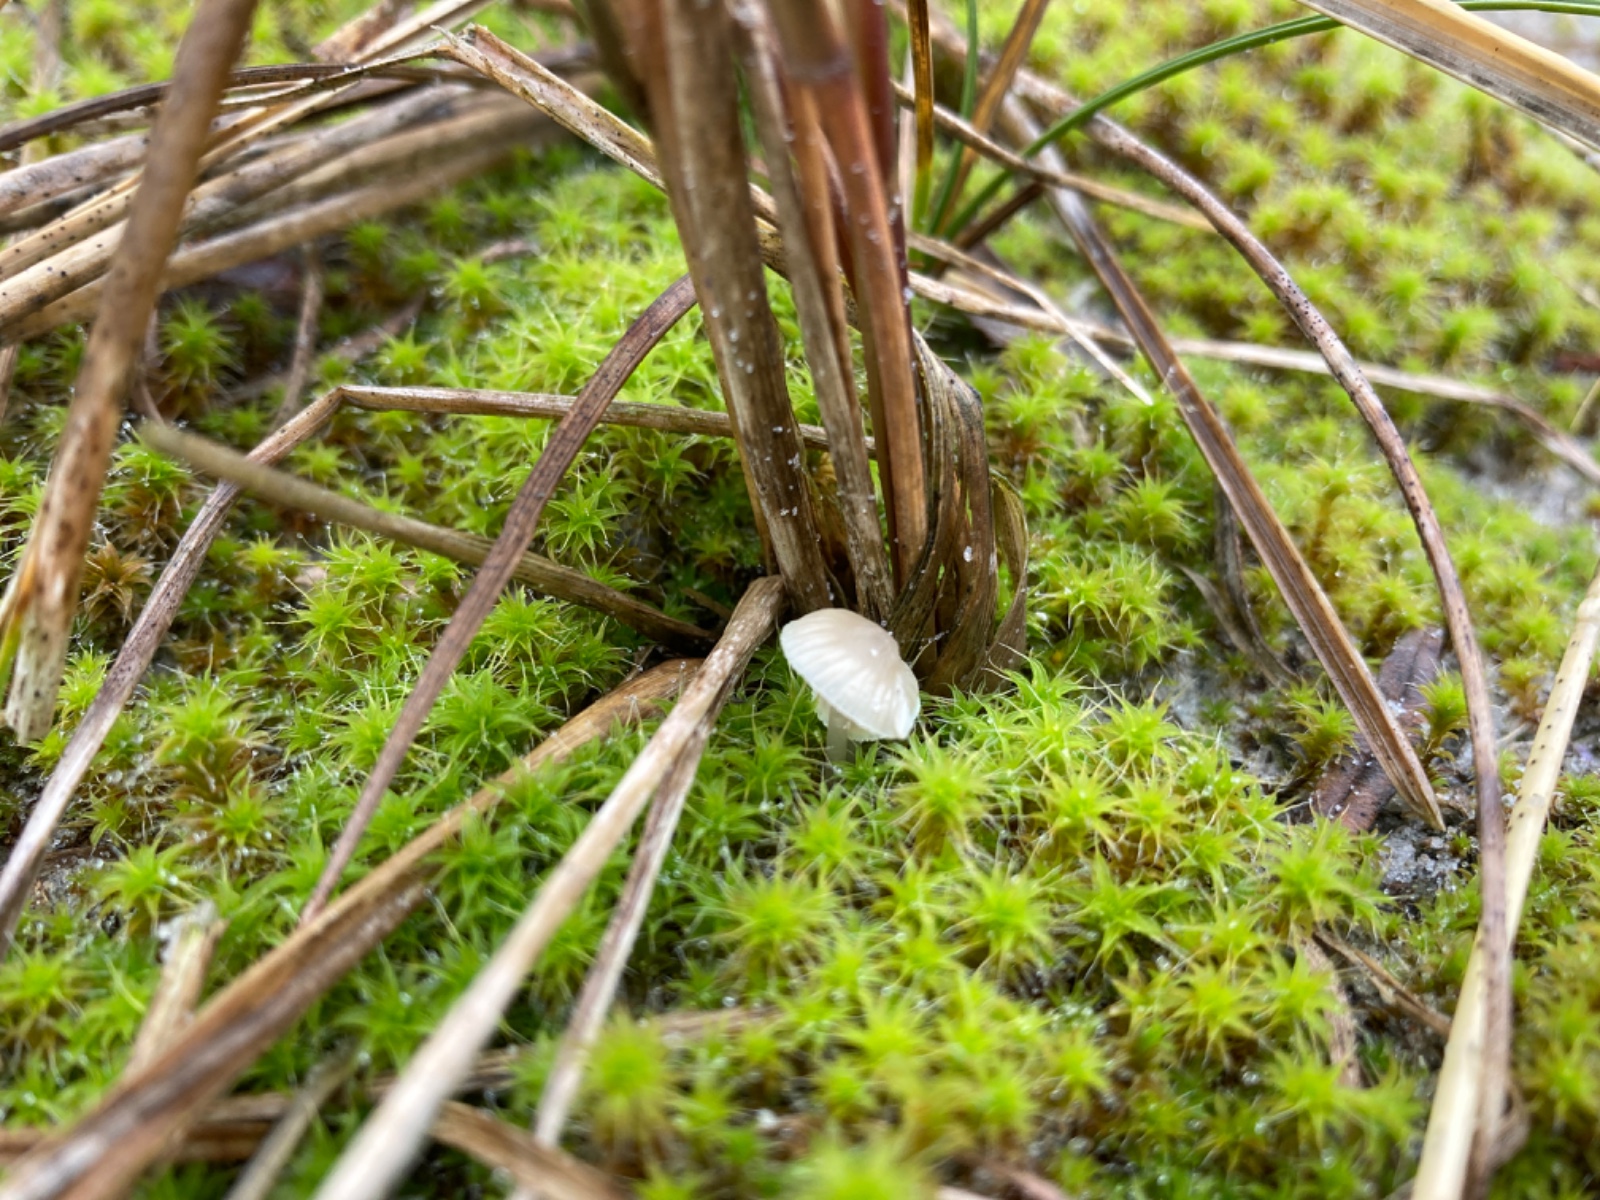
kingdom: Fungi
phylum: Basidiomycota
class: Agaricomycetes
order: Agaricales
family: Mycenaceae
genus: Mycena
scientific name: Mycena chlorantha
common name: klit-huesvamp
